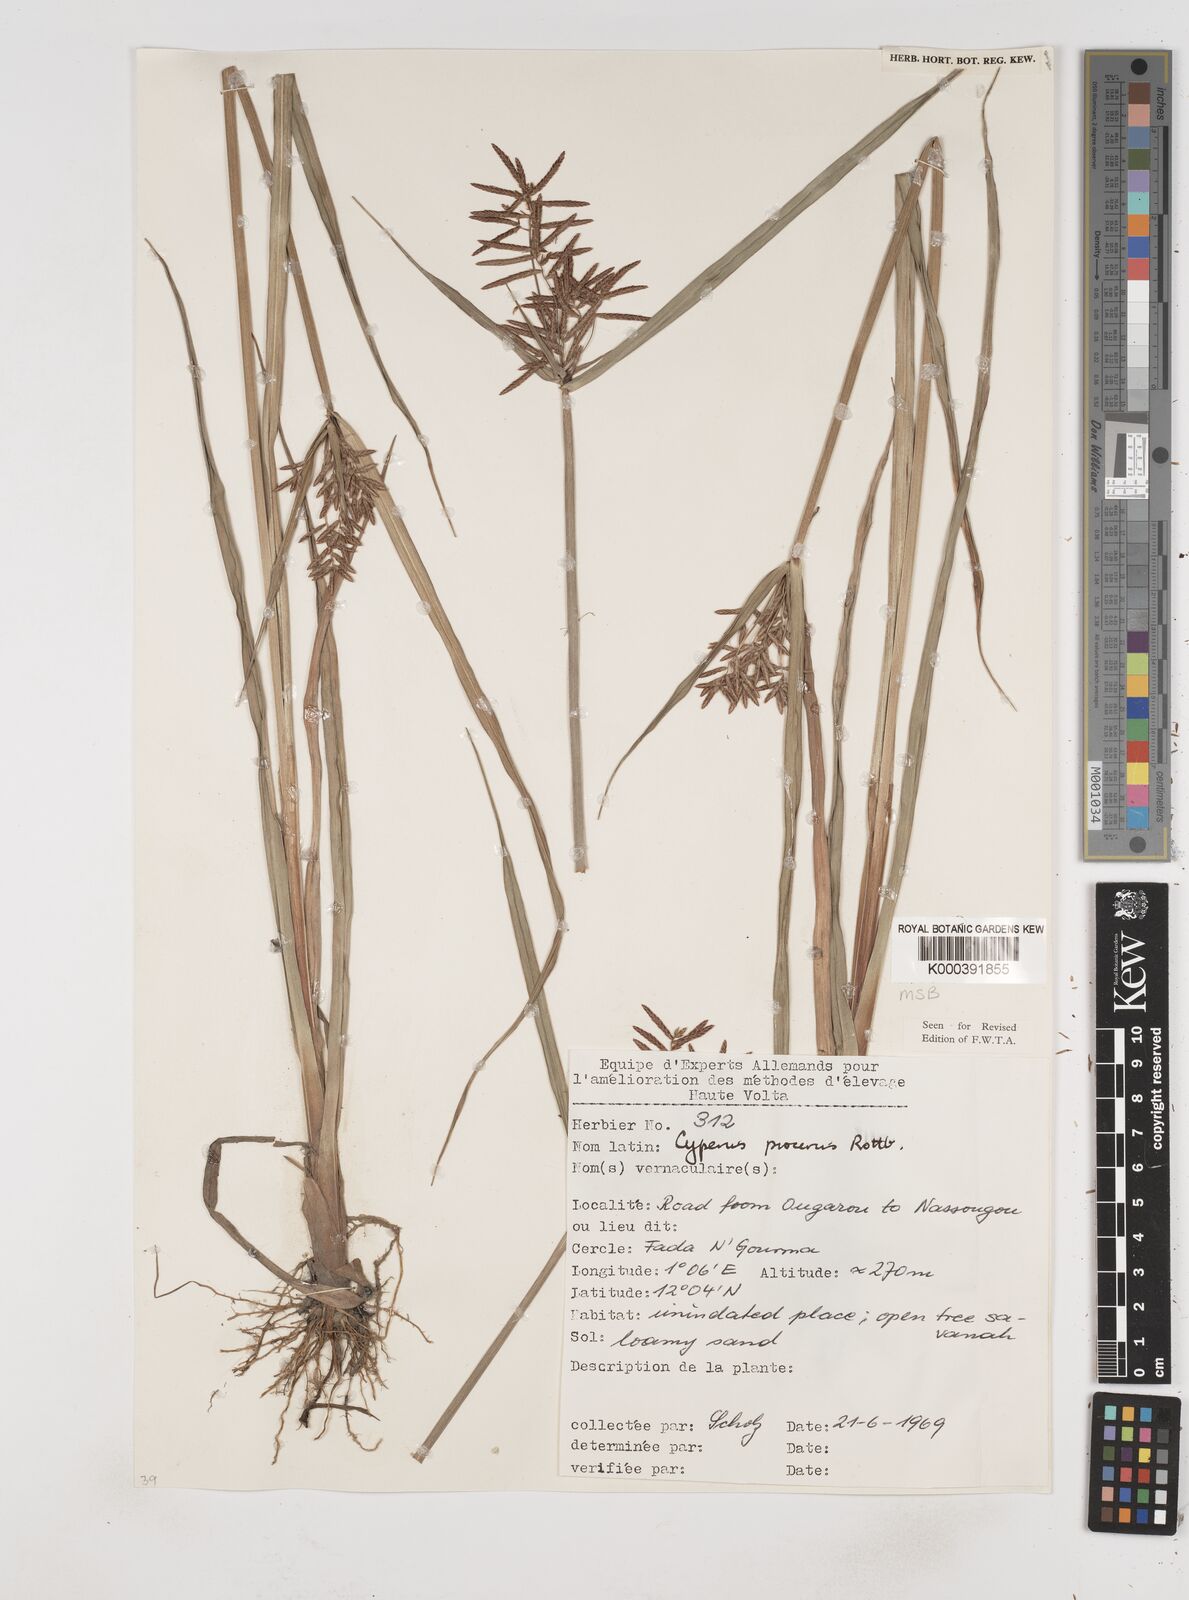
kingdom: Plantae
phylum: Tracheophyta
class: Liliopsida
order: Poales
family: Cyperaceae
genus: Cyperus
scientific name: Cyperus procerus
